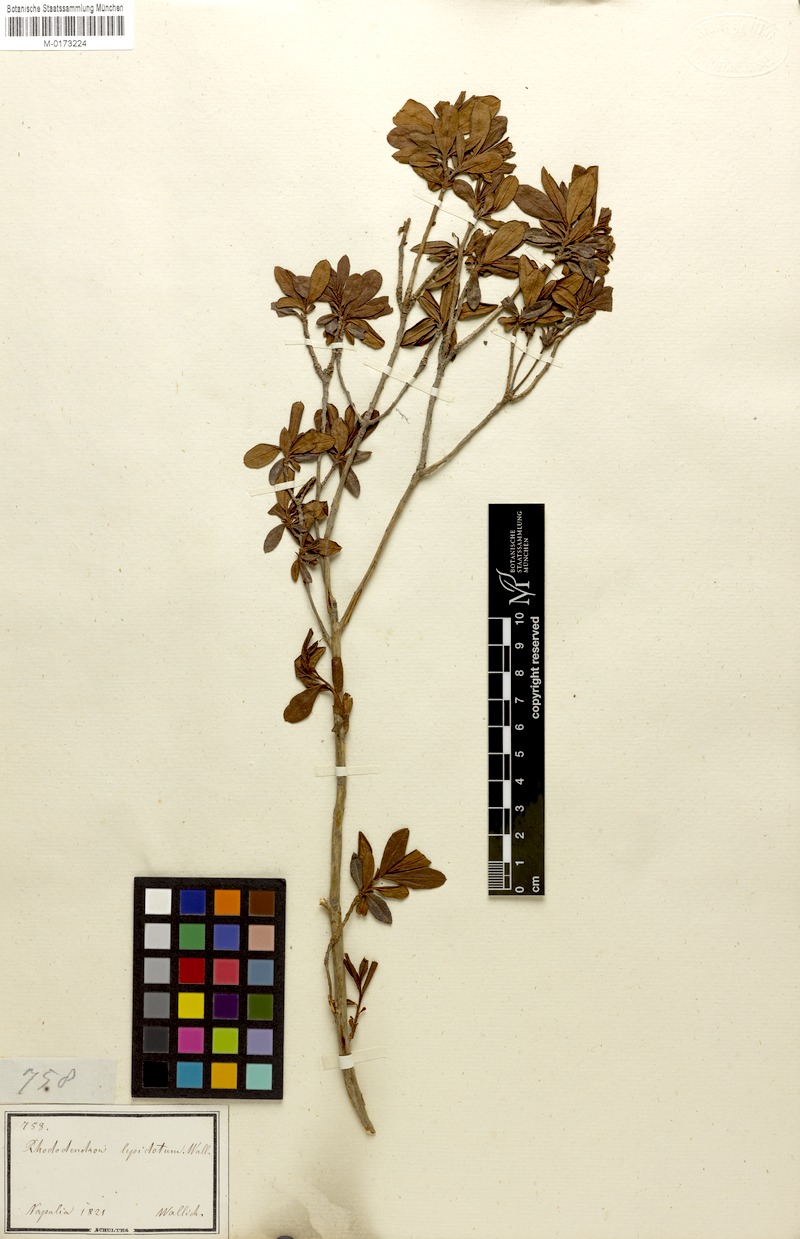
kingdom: Plantae
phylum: Tracheophyta
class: Magnoliopsida
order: Ericales
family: Ericaceae
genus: Rhododendron
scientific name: Rhododendron lepidotum
